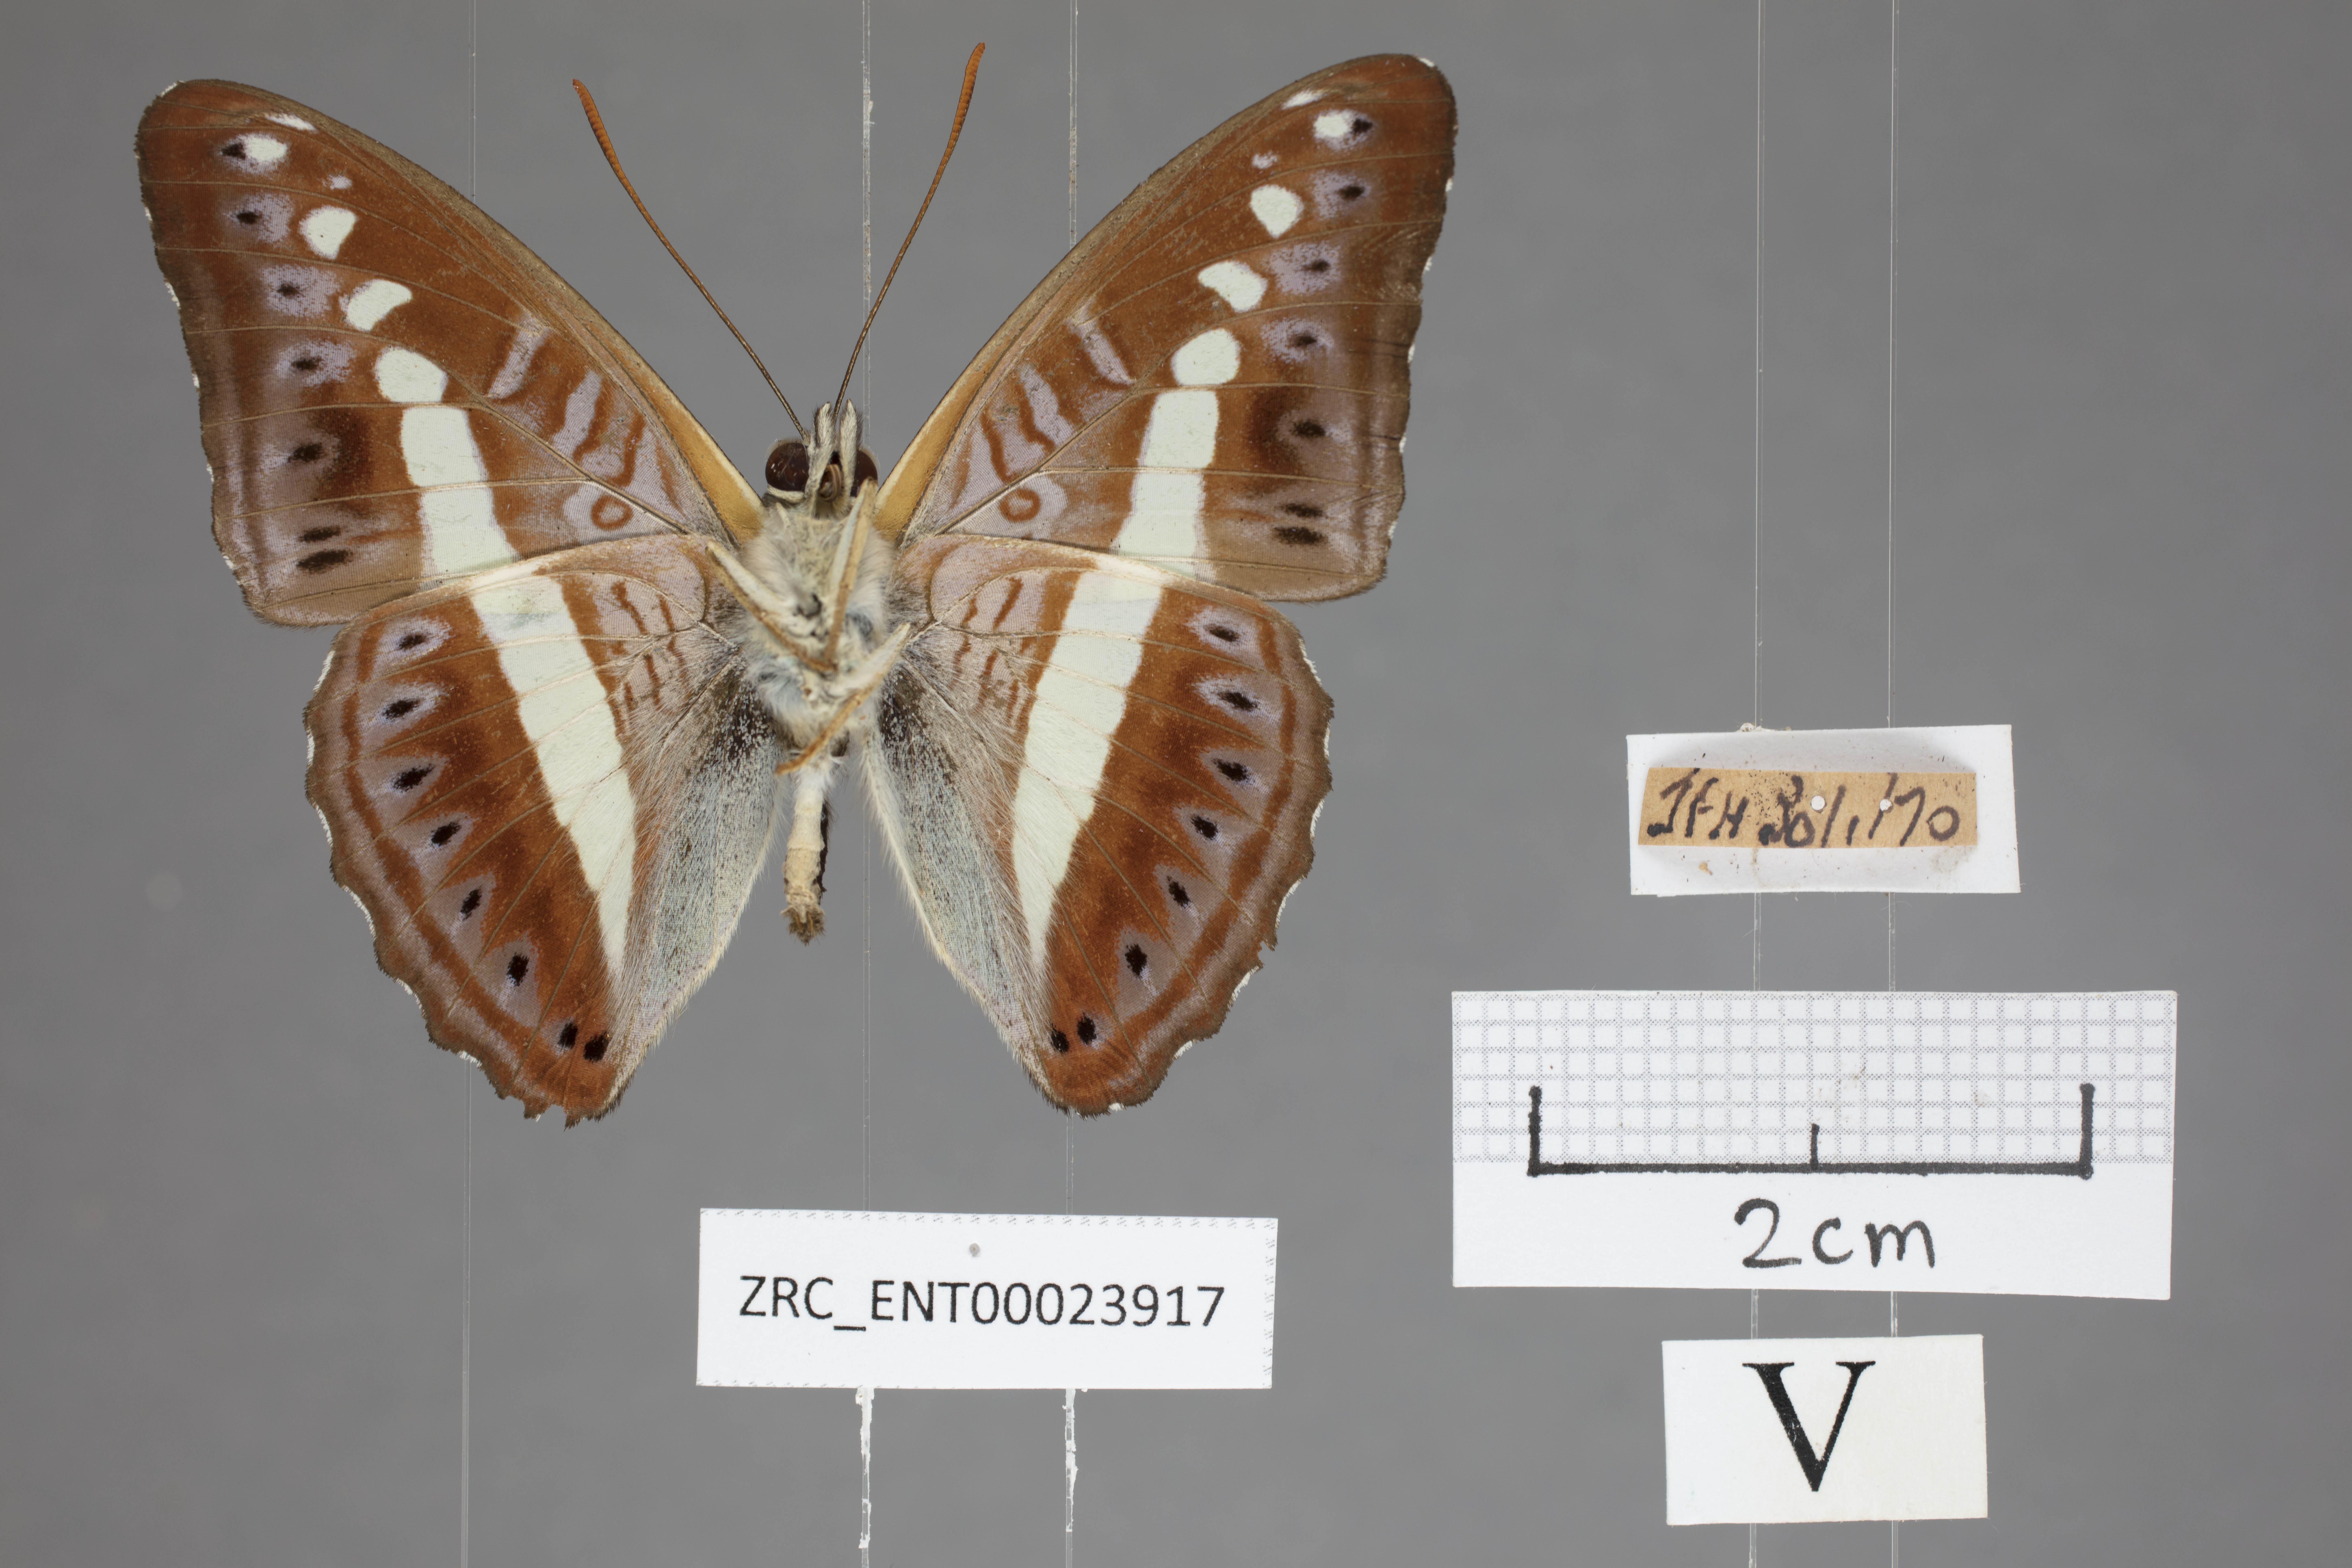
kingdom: Animalia
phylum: Arthropoda
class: Insecta
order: Lepidoptera
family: Nymphalidae
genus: Limenitis
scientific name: Limenitis Sumalia daraxa
